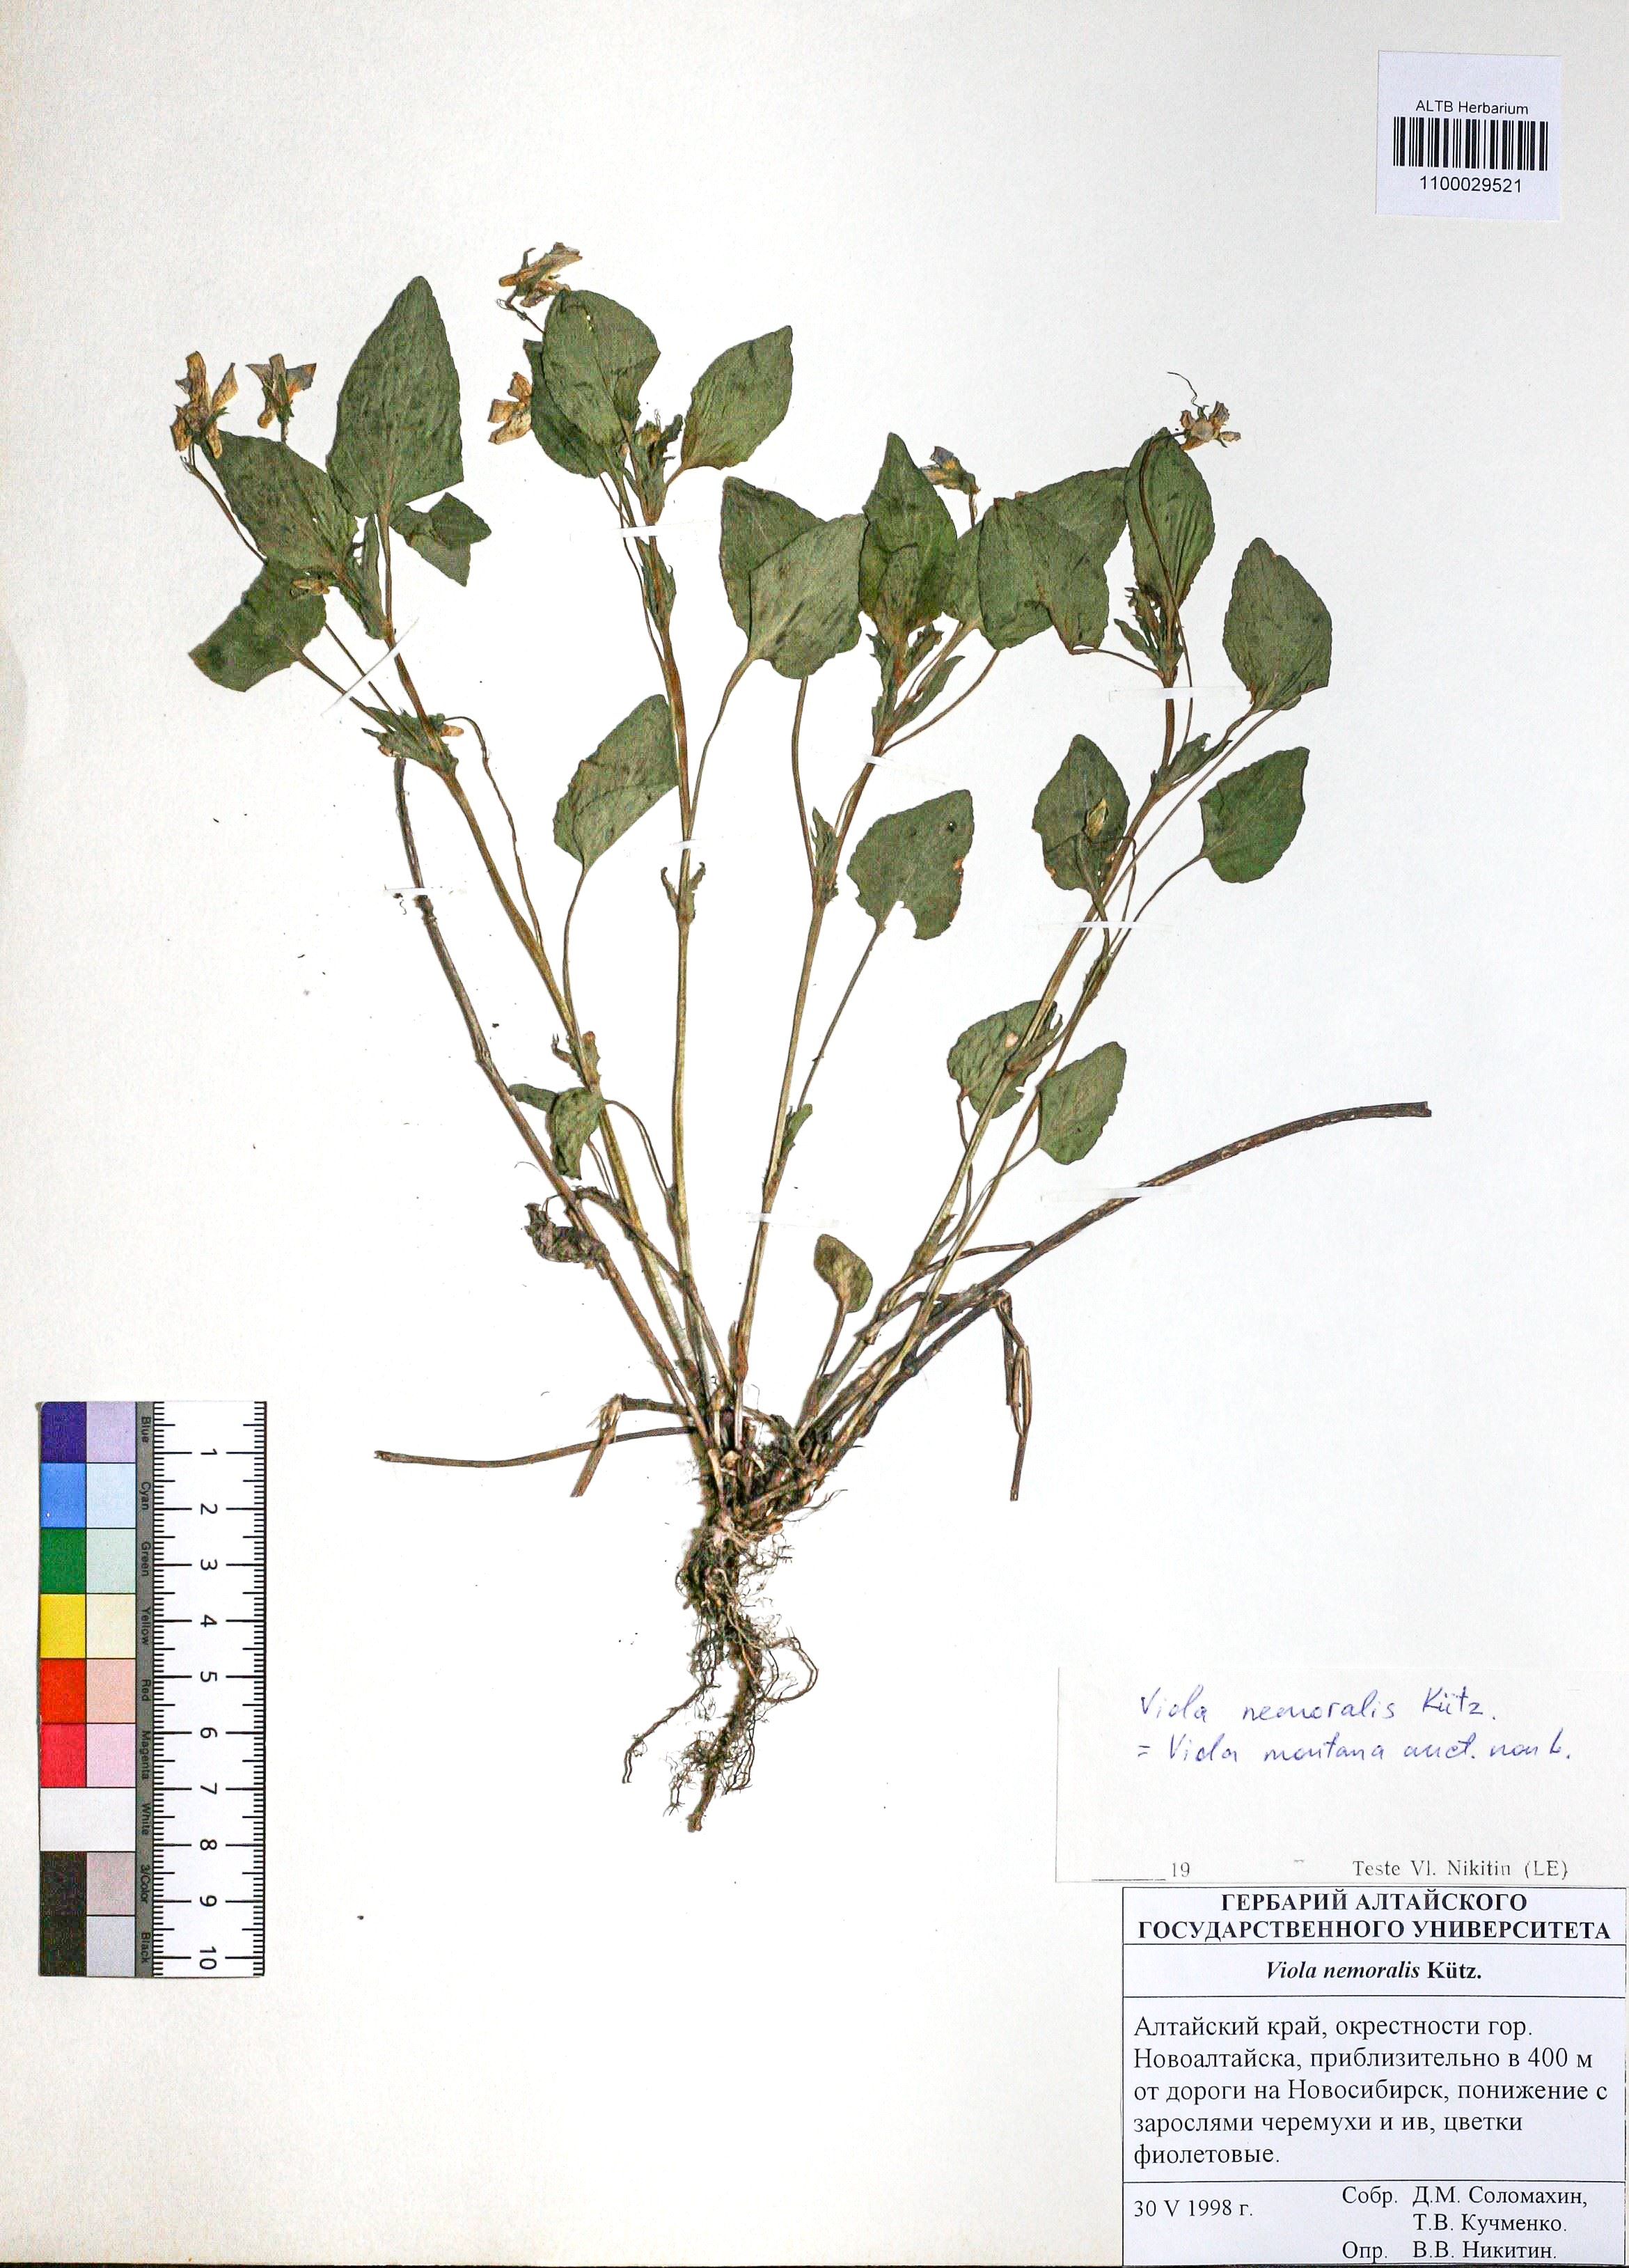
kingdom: Plantae
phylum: Tracheophyta
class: Magnoliopsida
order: Malpighiales
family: Violaceae
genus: Viola
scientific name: Viola ruppii
